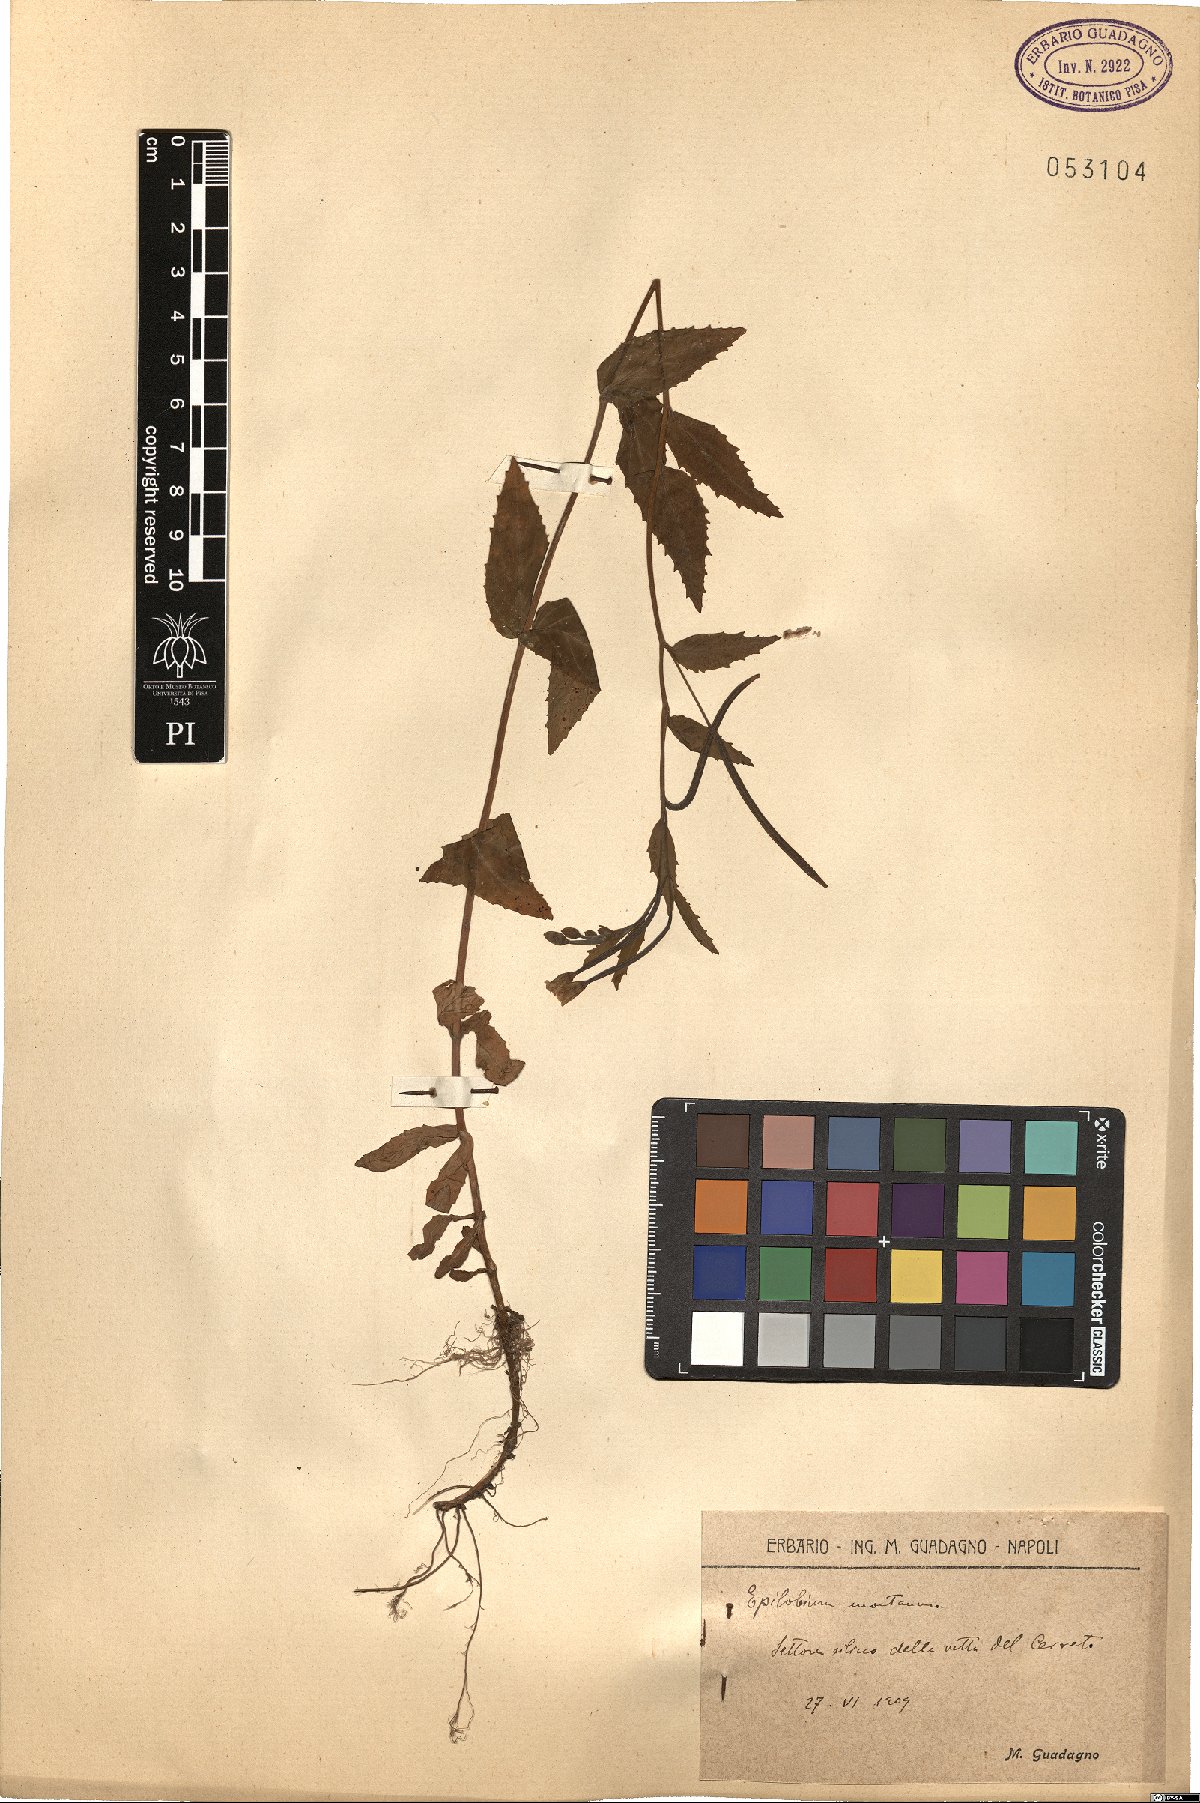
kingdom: Plantae
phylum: Tracheophyta
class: Magnoliopsida
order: Myrtales
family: Onagraceae
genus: Epilobium
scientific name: Epilobium montanum
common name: Broad-leaved willowherb
